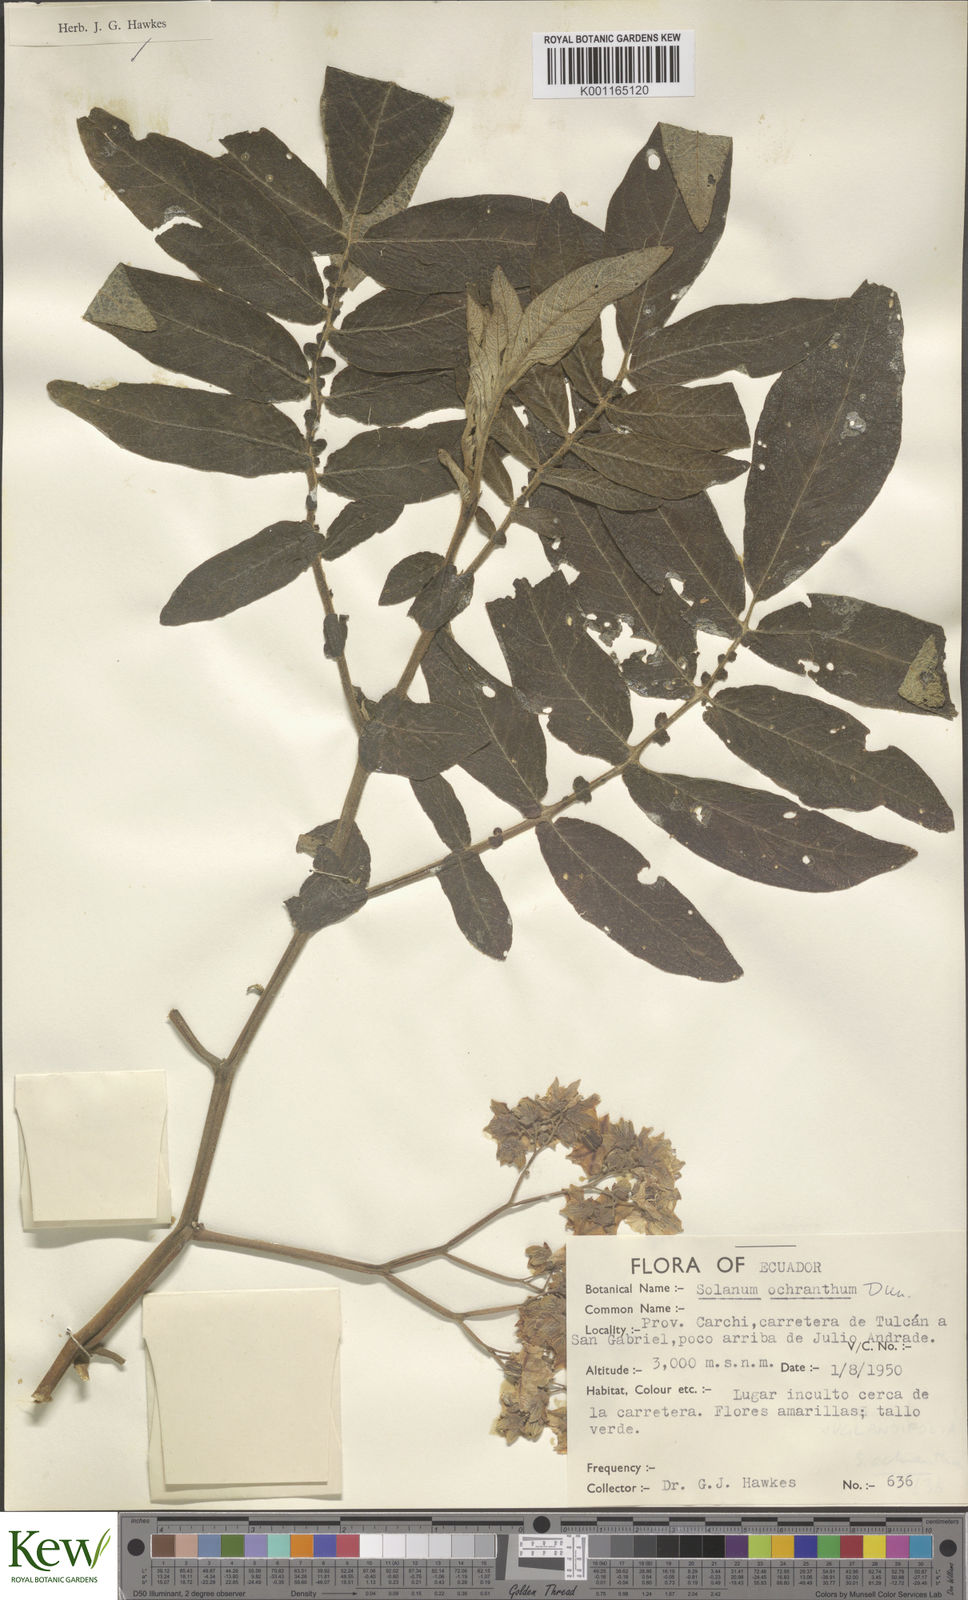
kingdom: Plantae
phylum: Tracheophyta
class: Magnoliopsida
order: Solanales
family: Solanaceae
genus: Solanum
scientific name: Solanum ochranthum
